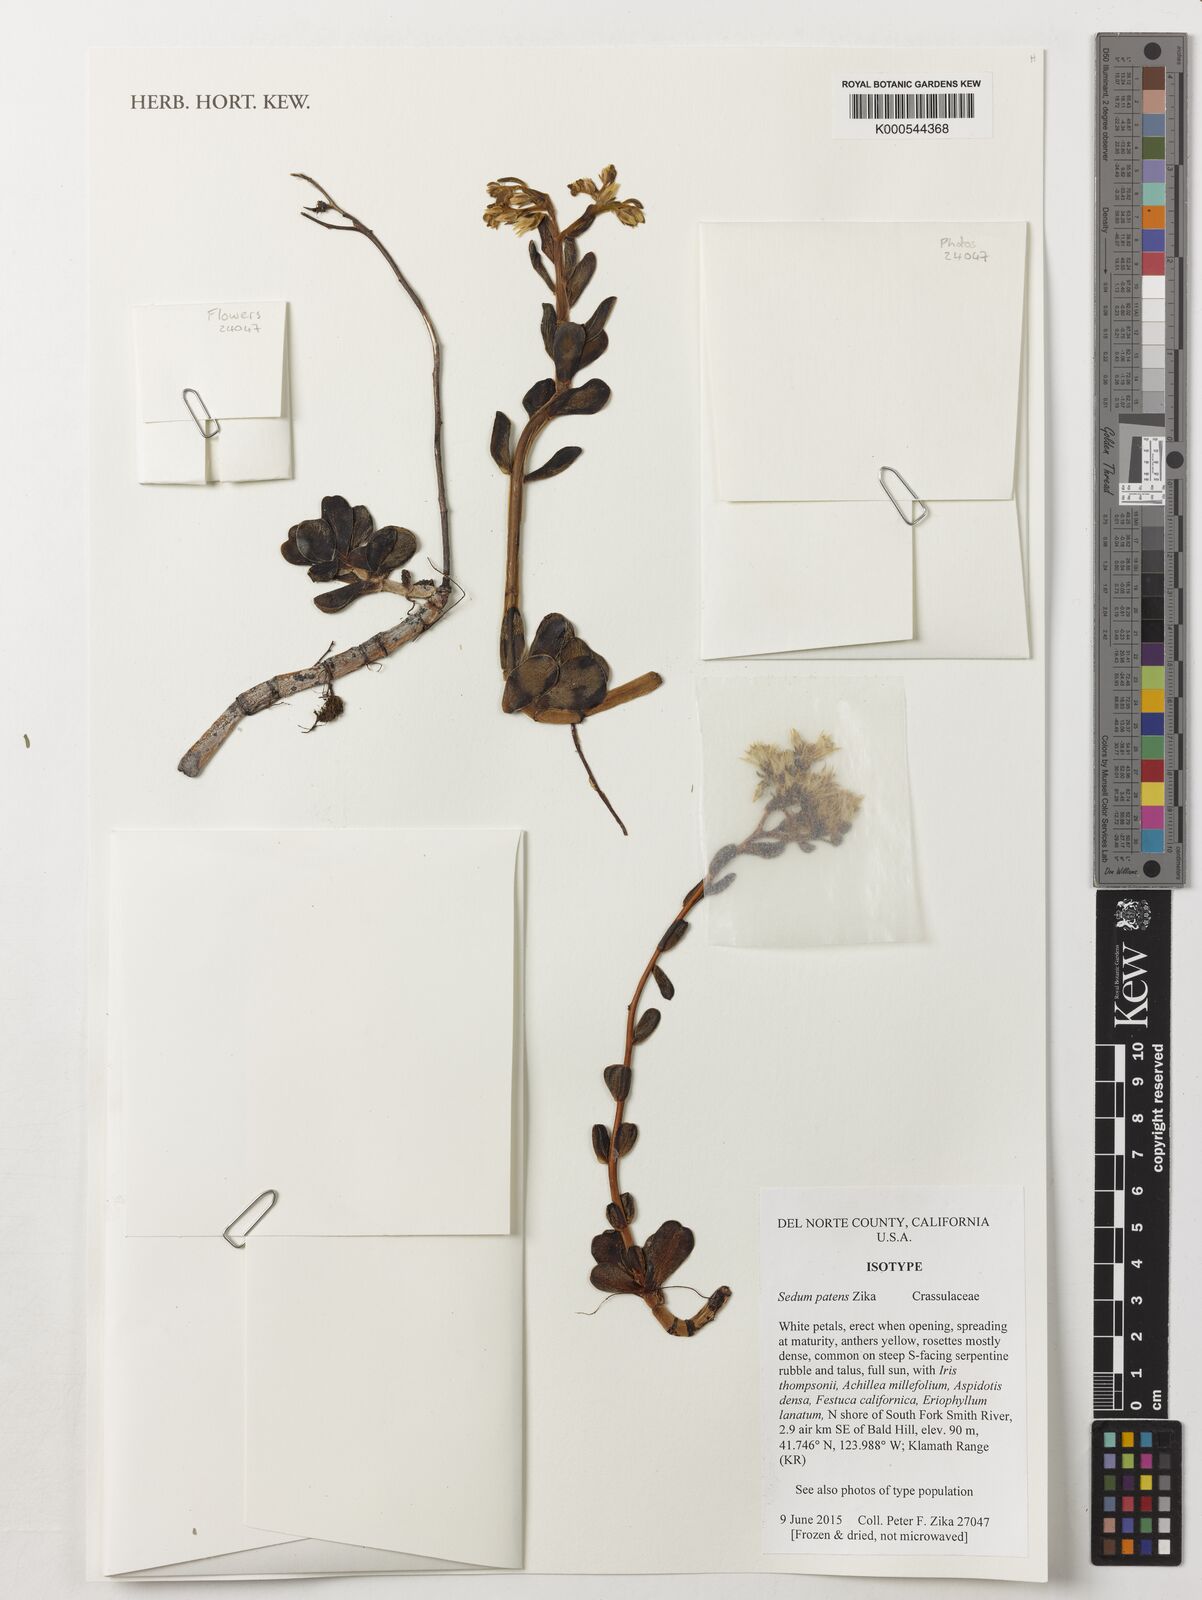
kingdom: Plantae
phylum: Tracheophyta
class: Magnoliopsida
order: Saxifragales
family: Crassulaceae
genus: Sedum
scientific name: Sedum patens
